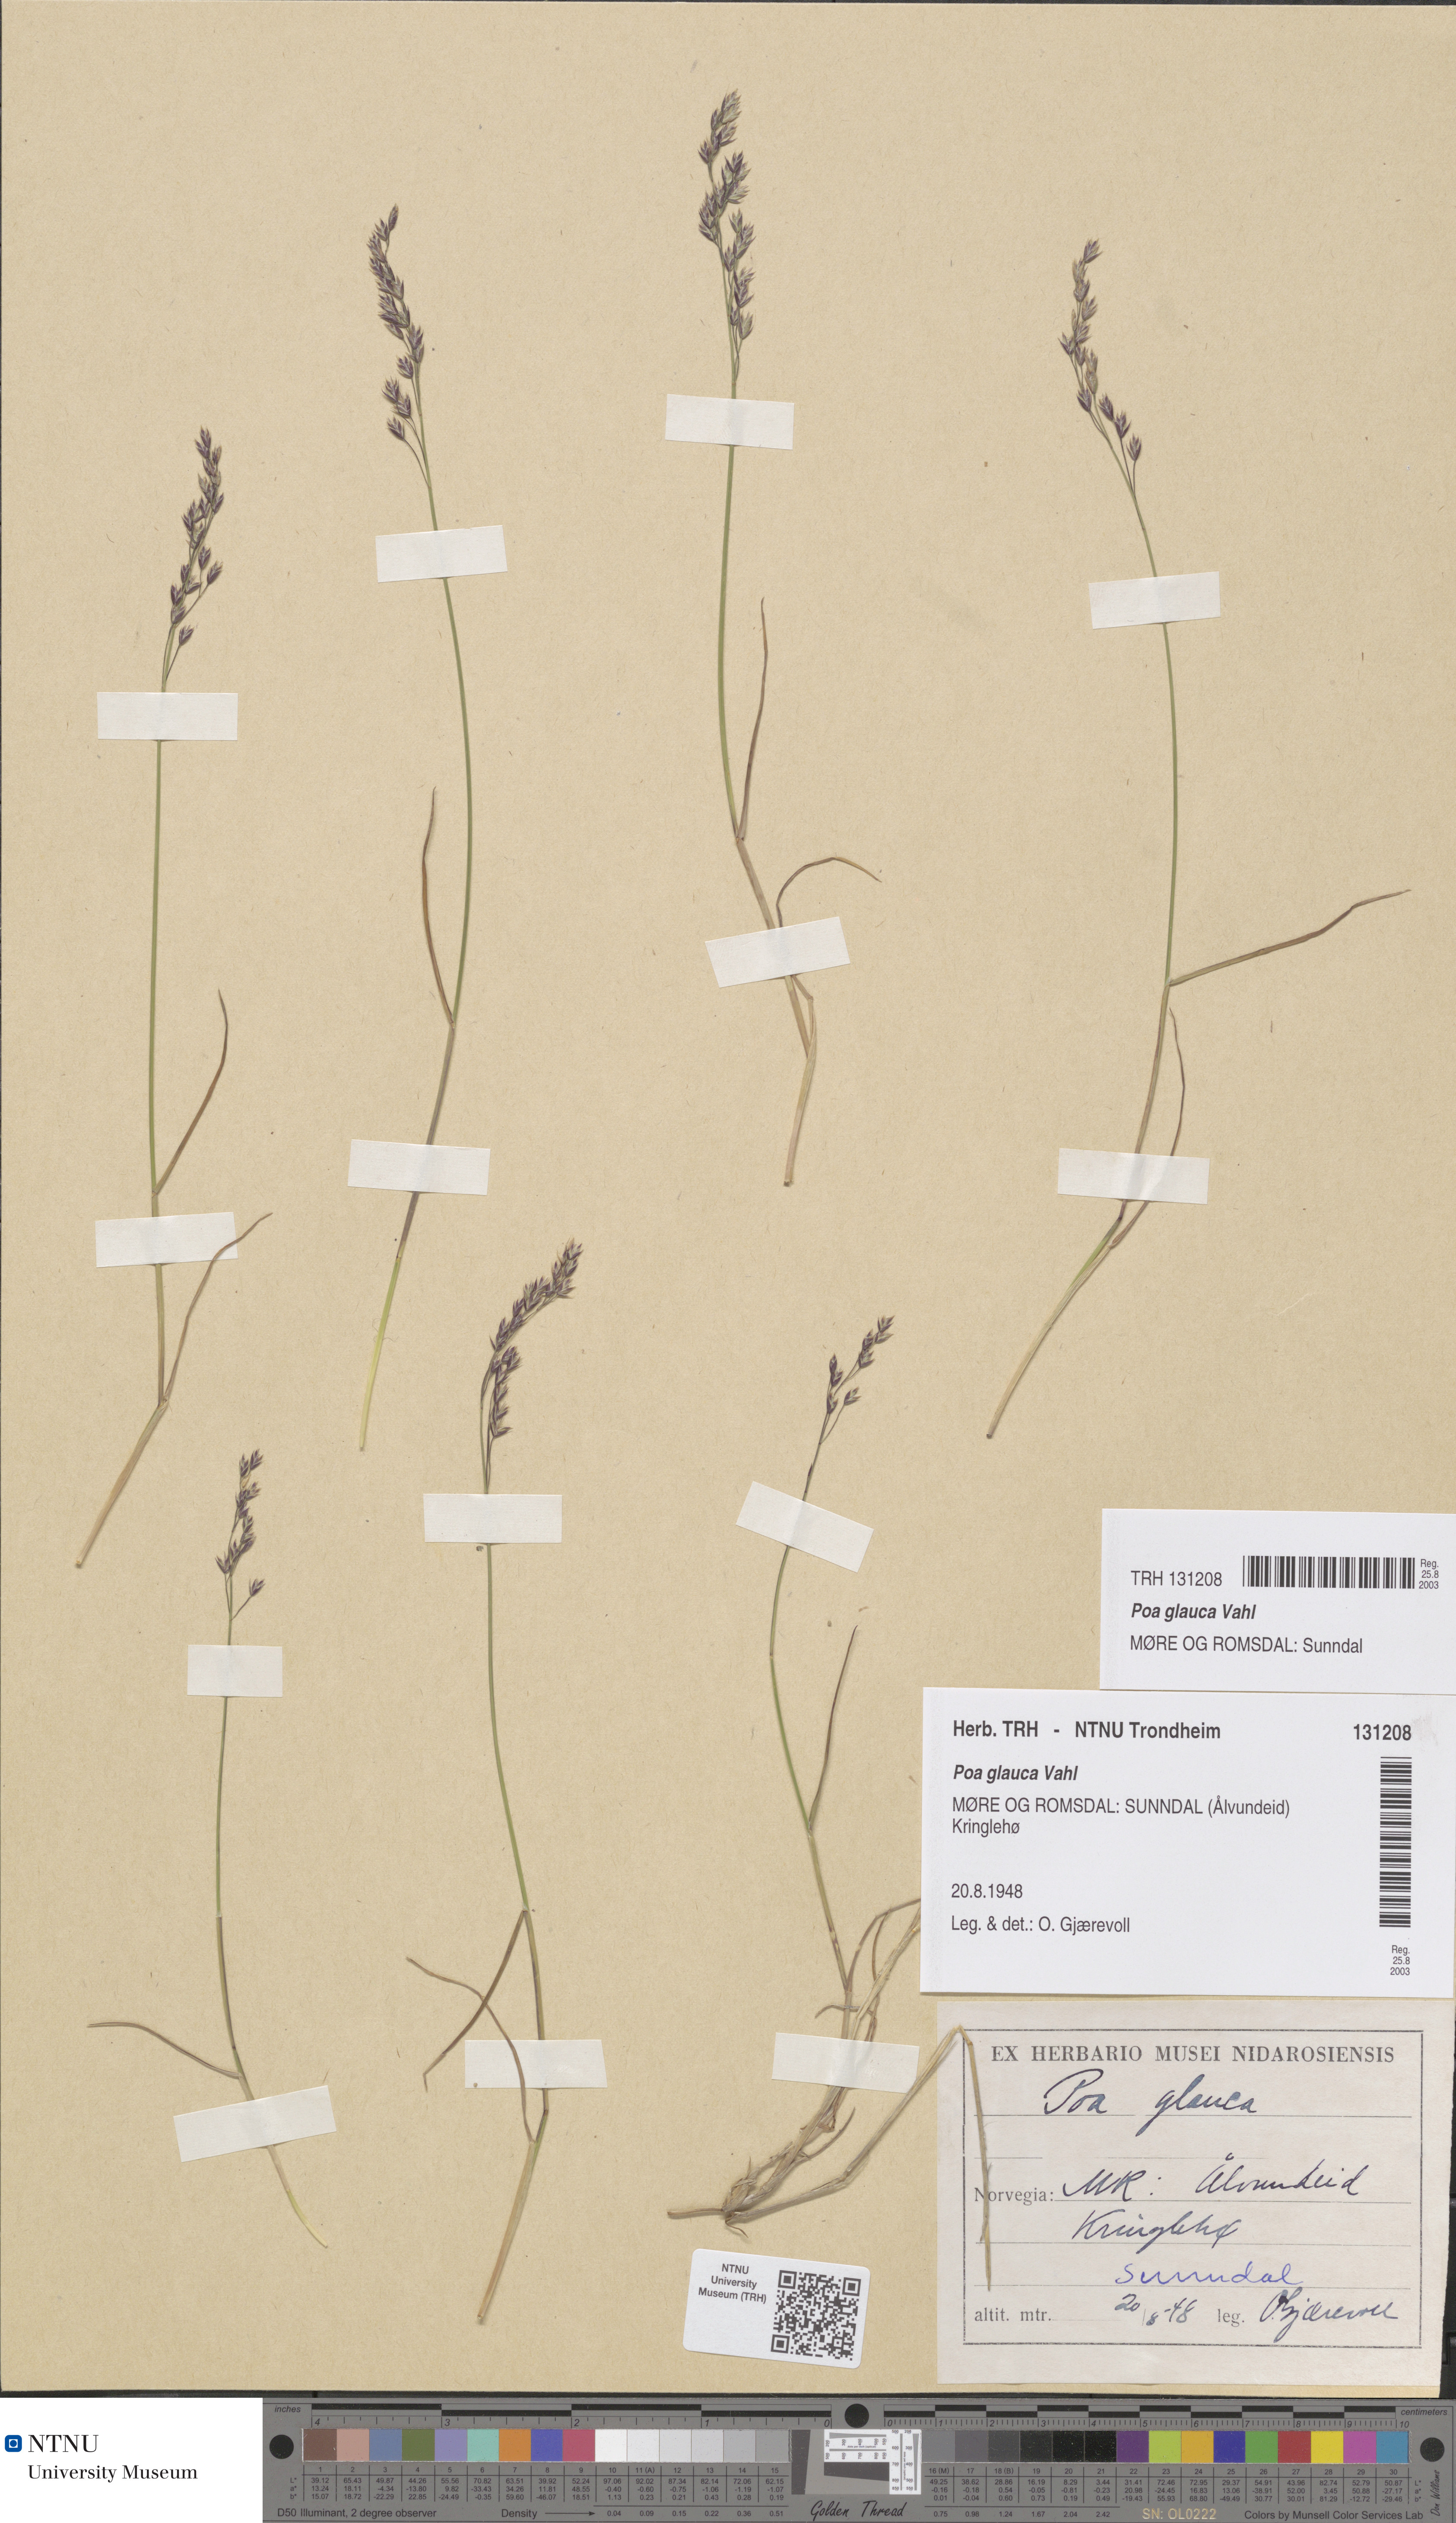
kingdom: Plantae
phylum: Tracheophyta
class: Liliopsida
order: Poales
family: Poaceae
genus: Poa
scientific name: Poa glauca
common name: Glaucous bluegrass
